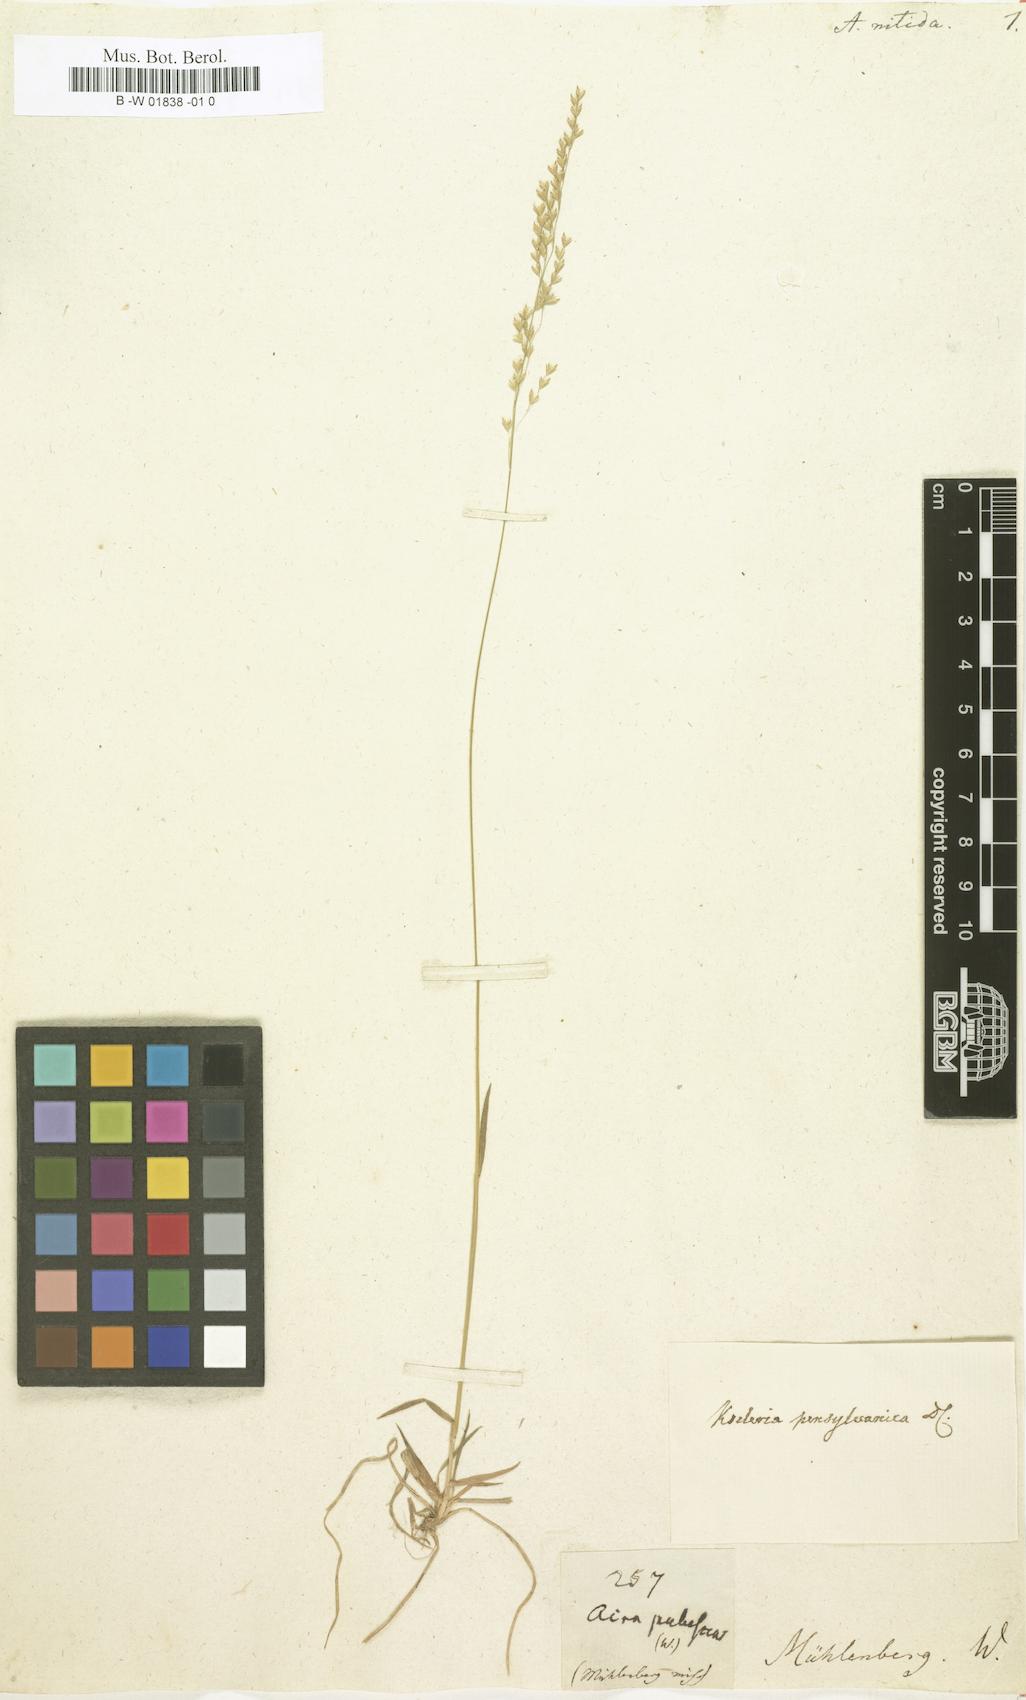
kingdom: Plantae
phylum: Tracheophyta
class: Liliopsida
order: Poales
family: Poaceae
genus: Sphenopholis
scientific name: Sphenopholis nitida
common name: Shiny wedgegrass
